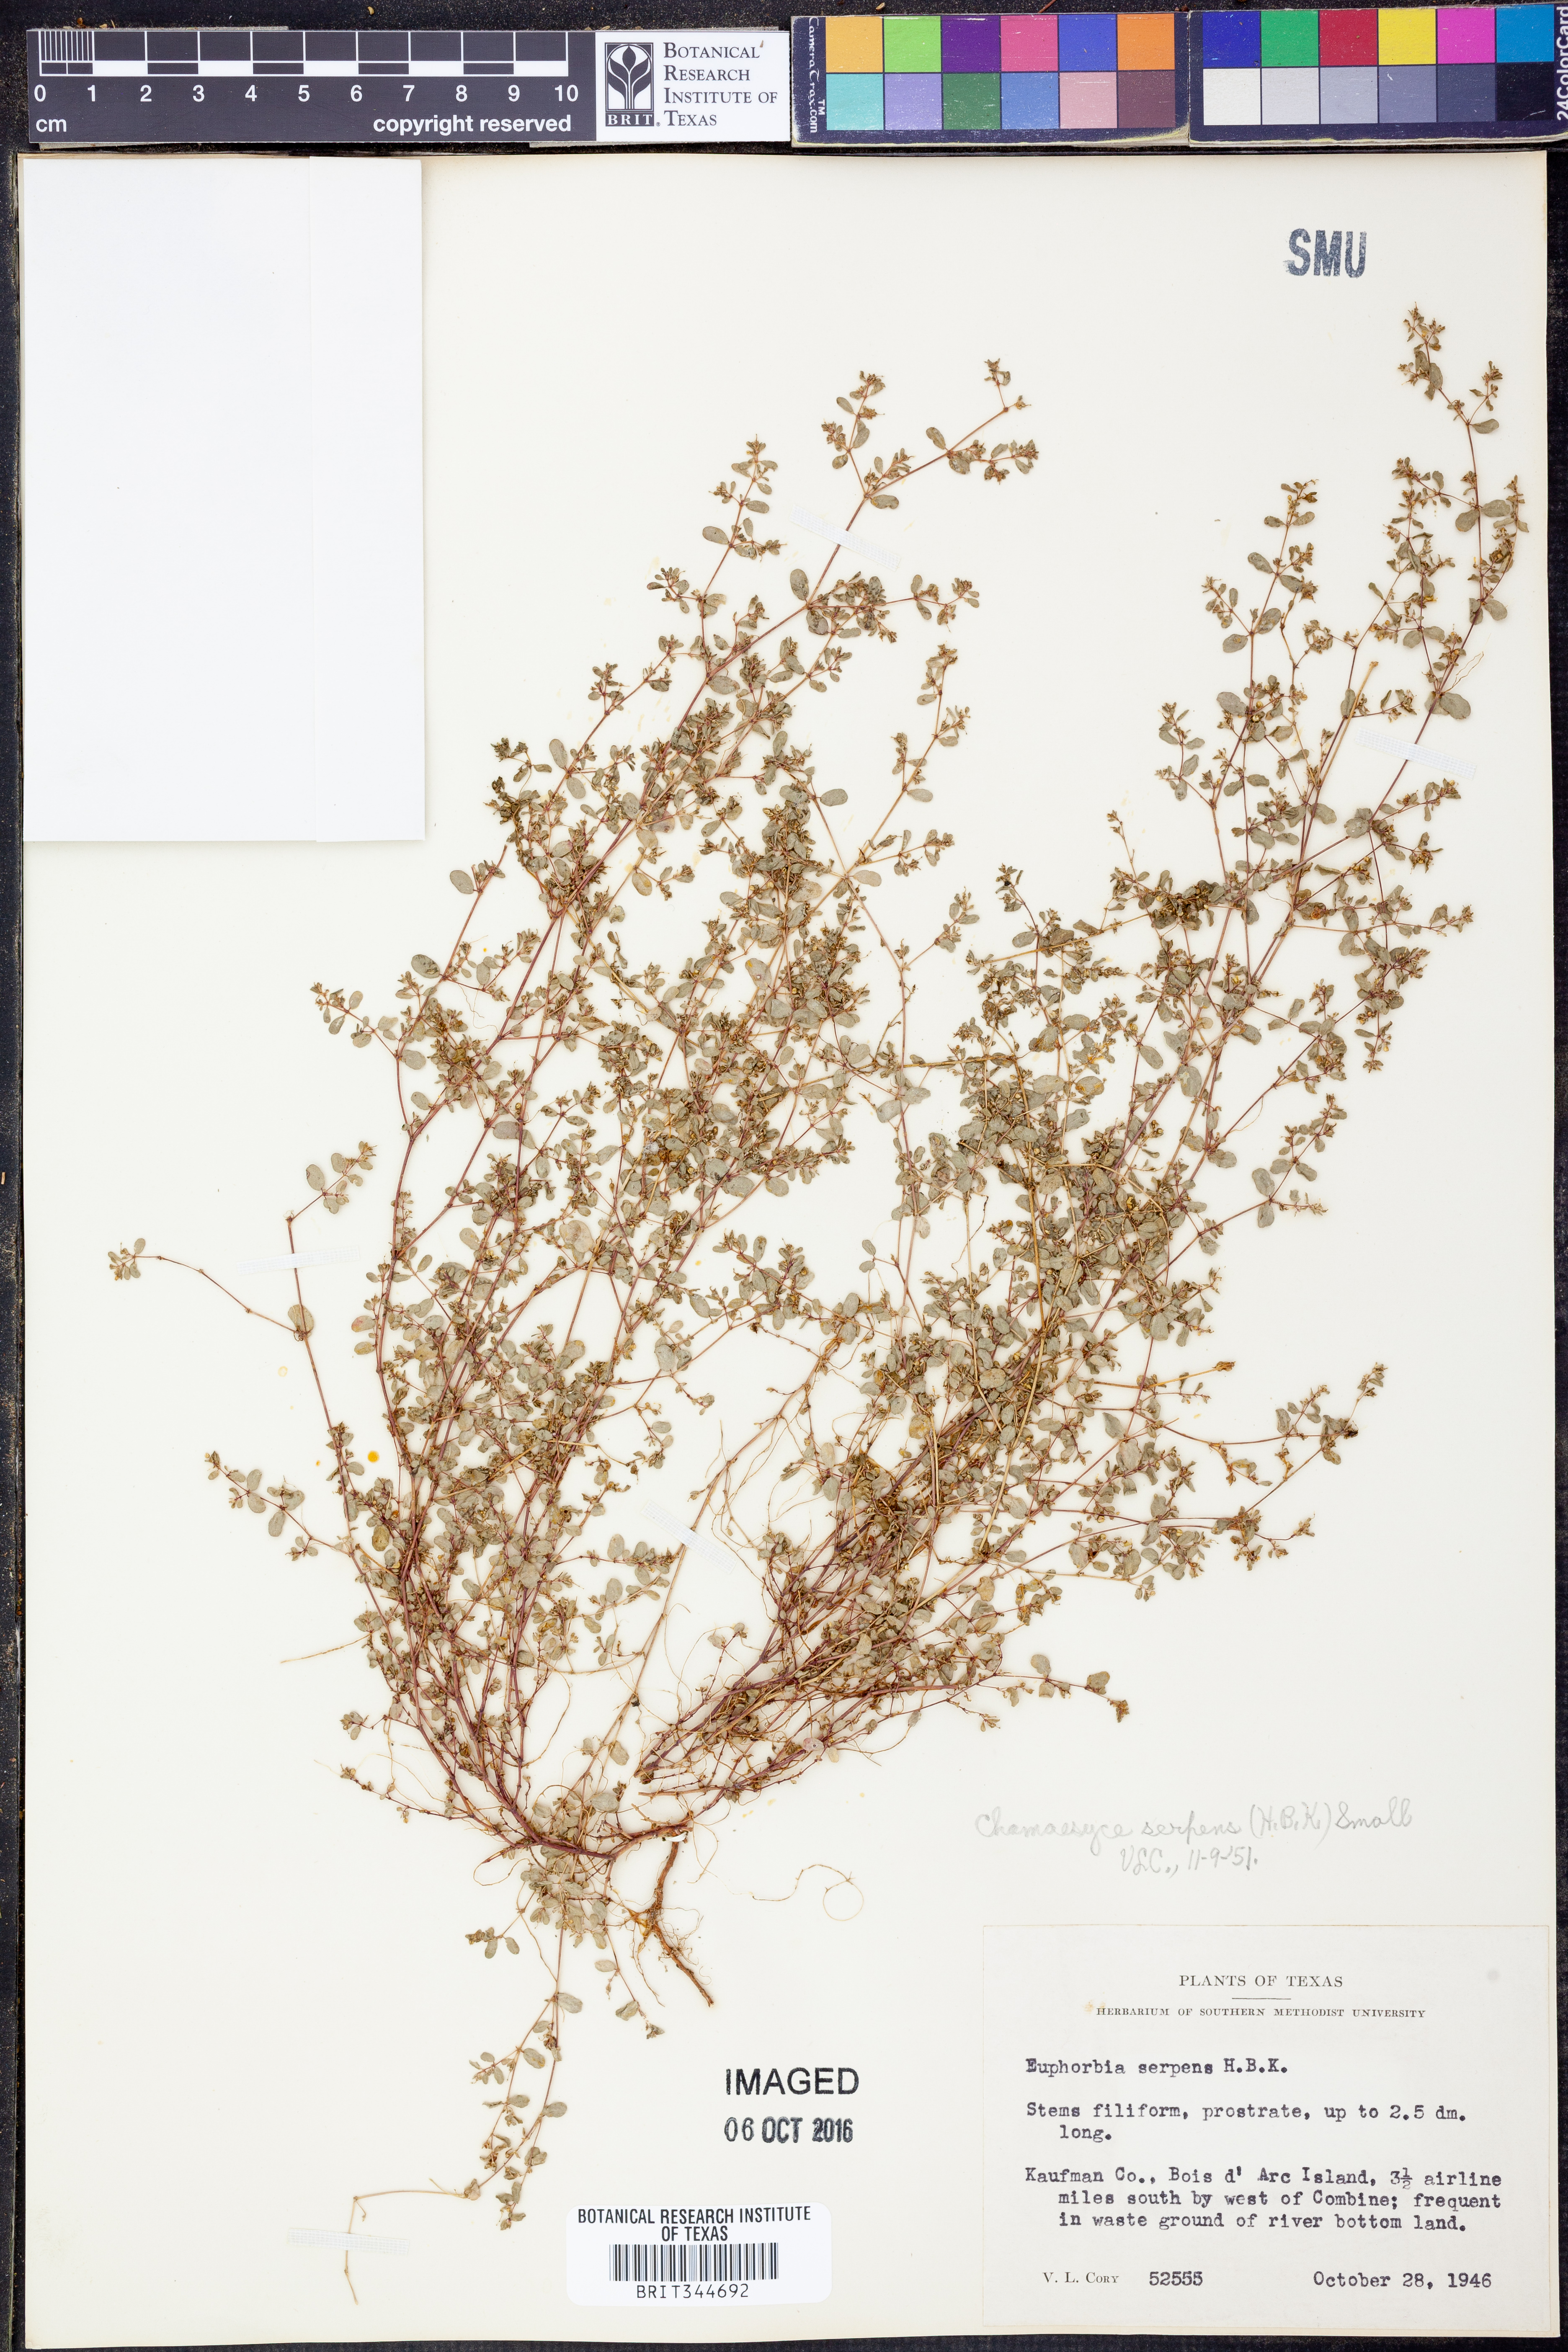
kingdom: Plantae
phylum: Tracheophyta
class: Magnoliopsida
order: Malpighiales
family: Euphorbiaceae
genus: Euphorbia
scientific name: Euphorbia serpens
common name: Matted sandmat
